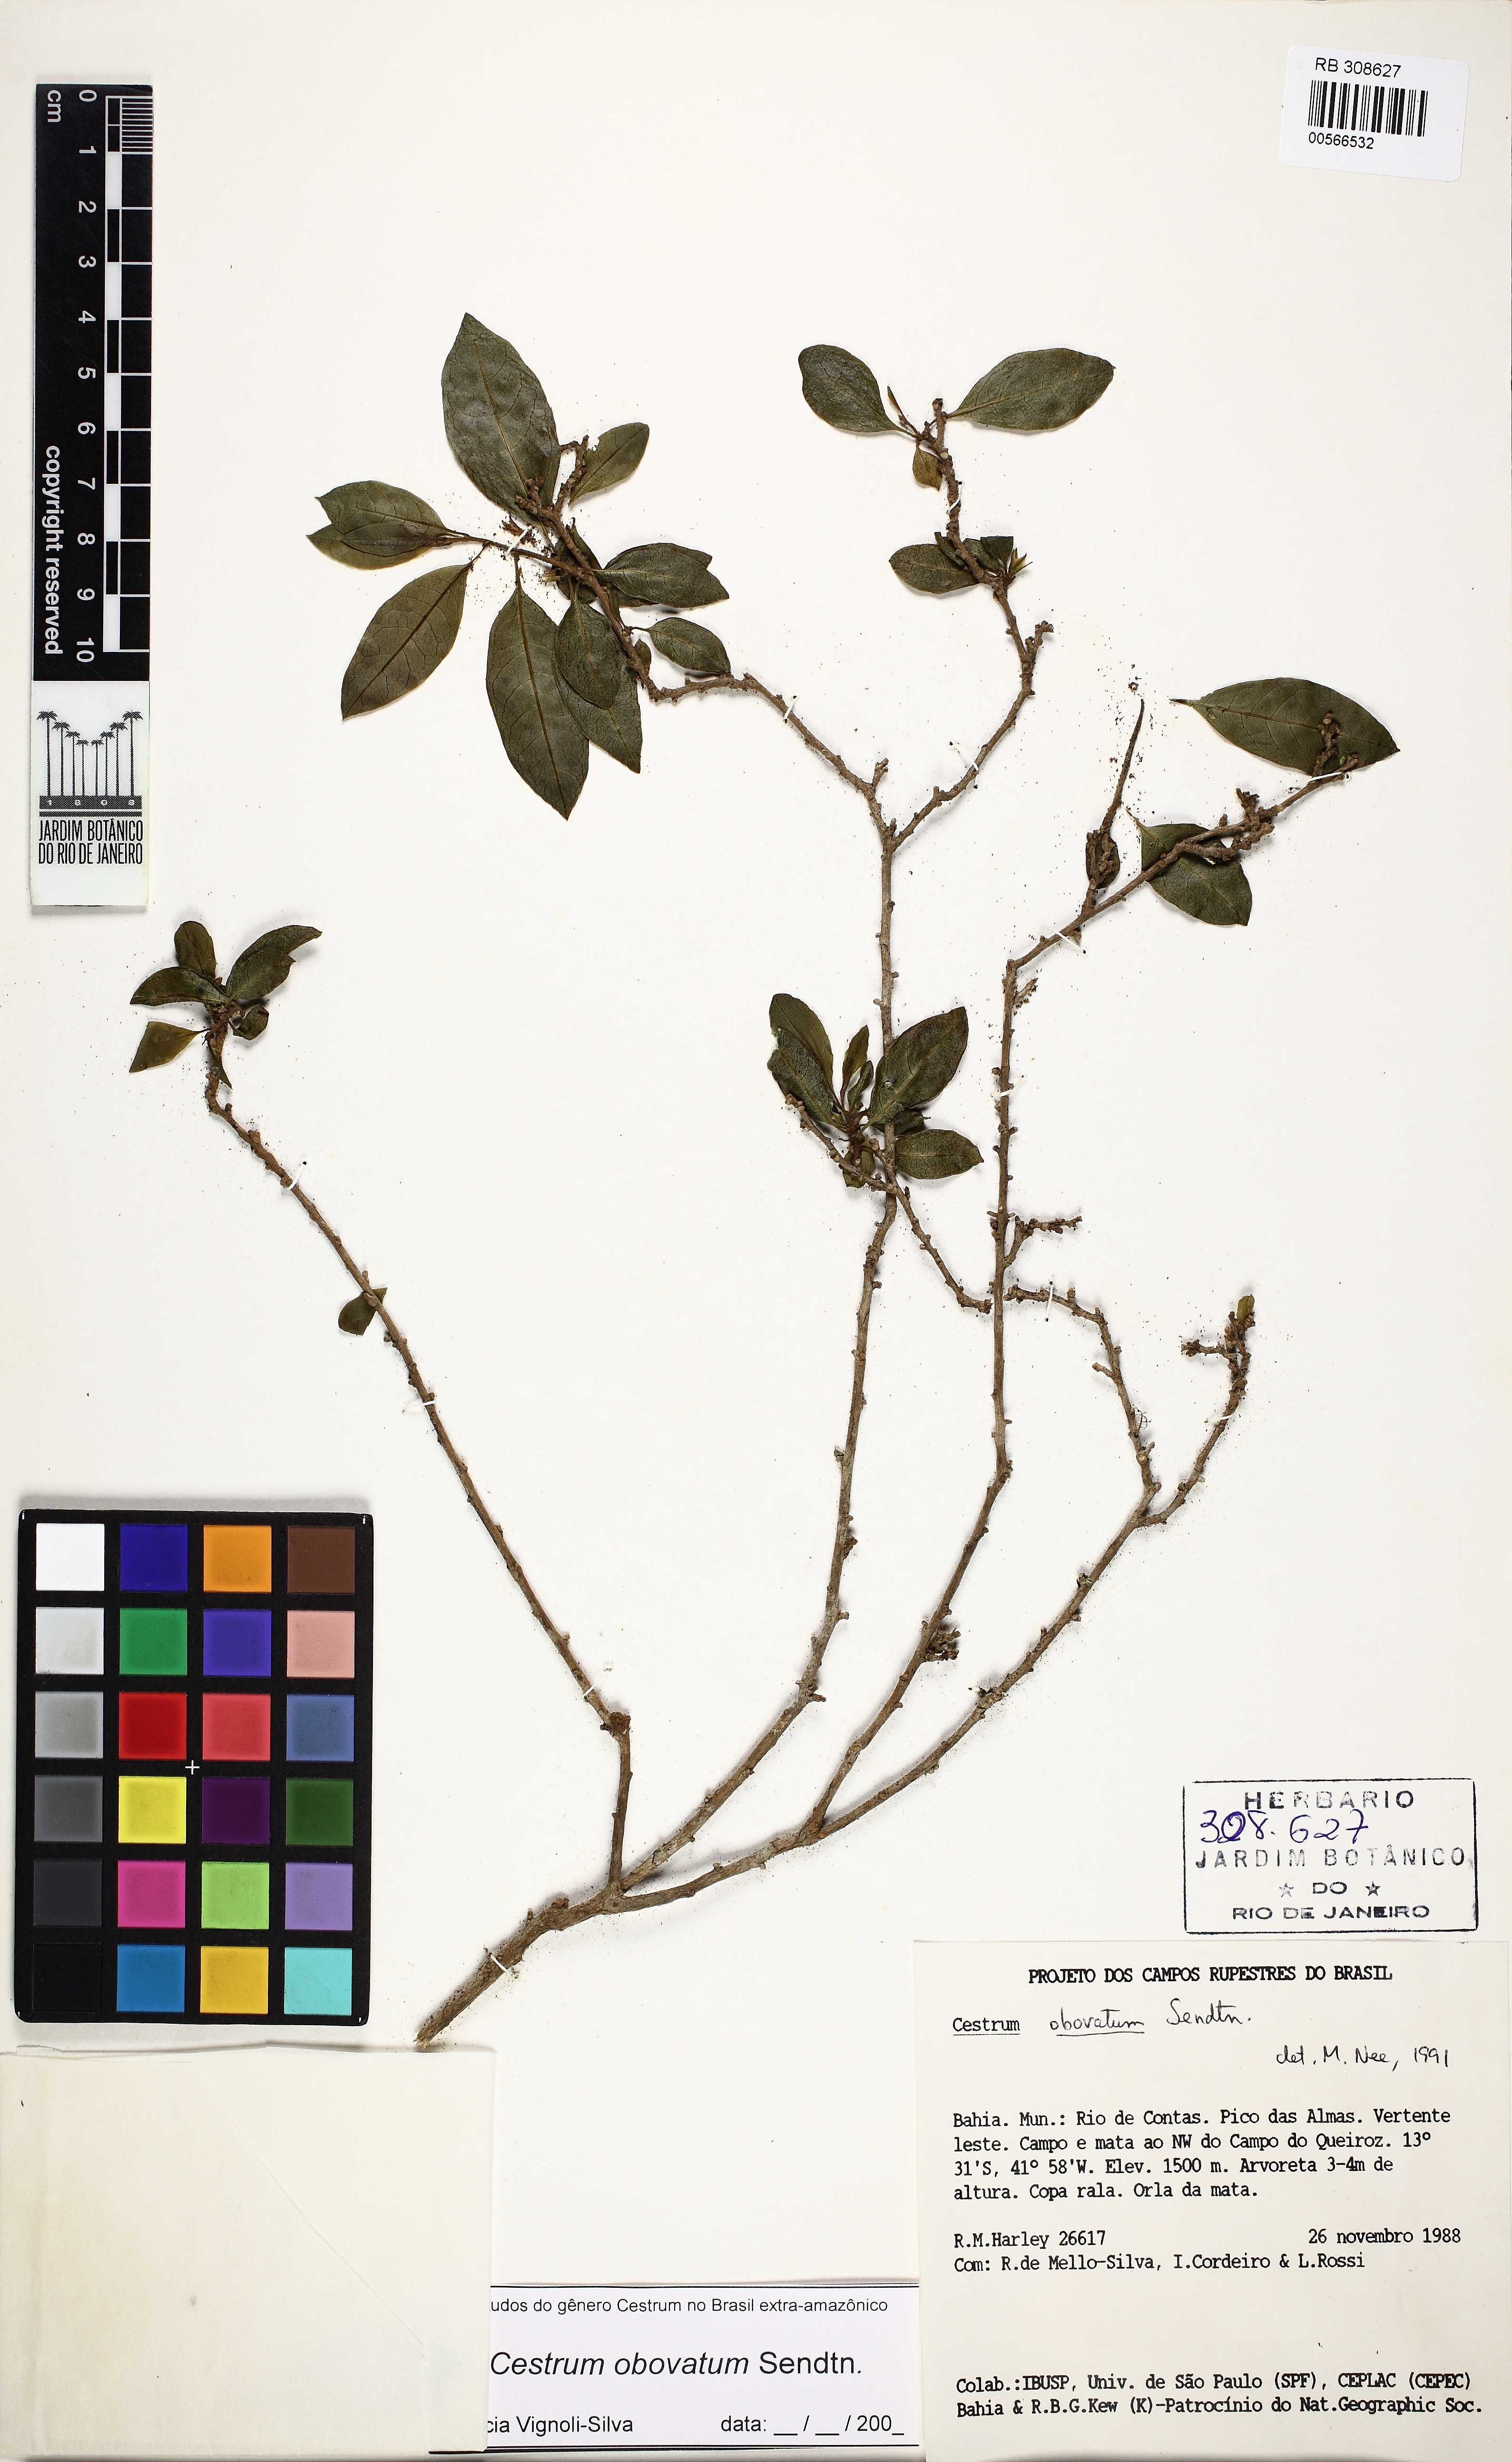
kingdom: Plantae
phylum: Tracheophyta
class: Magnoliopsida
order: Solanales
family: Solanaceae
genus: Cestrum
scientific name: Cestrum obovatum
